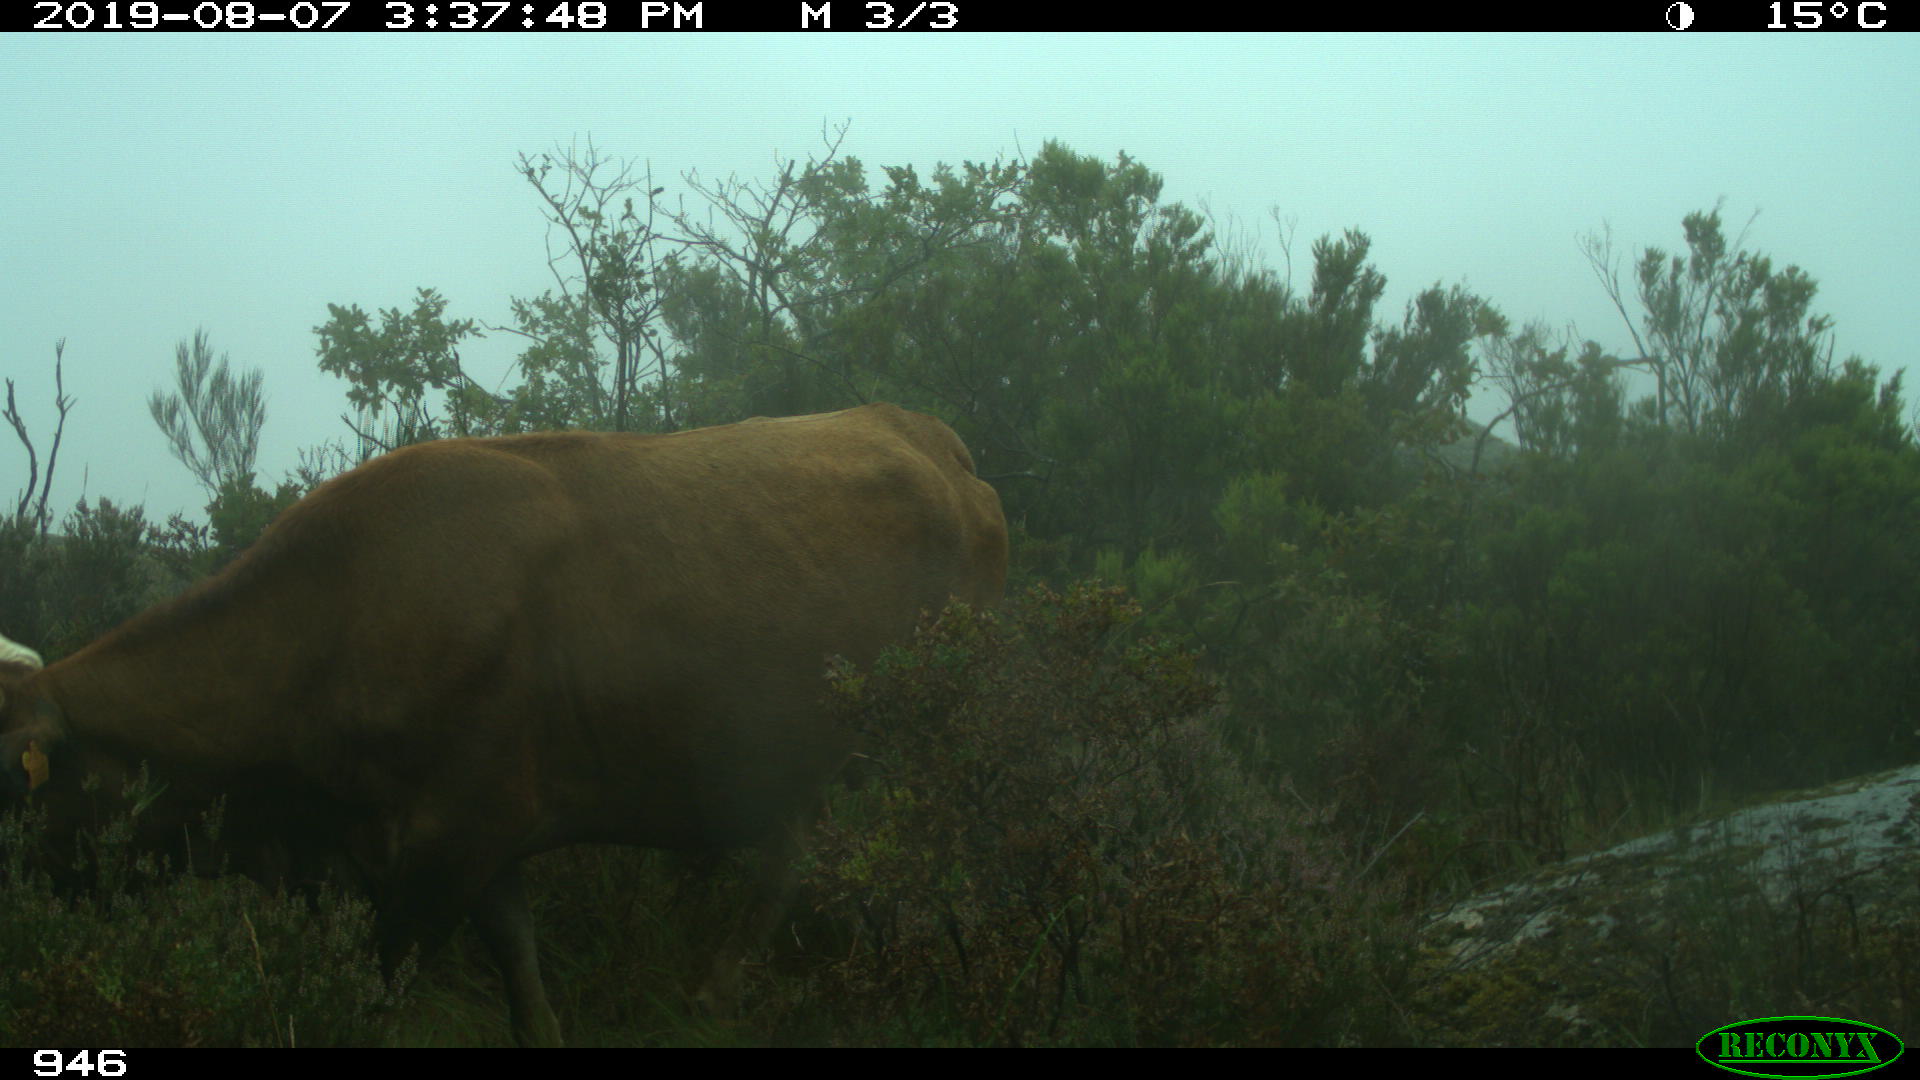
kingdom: Animalia
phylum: Chordata
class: Mammalia
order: Artiodactyla
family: Bovidae
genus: Bos
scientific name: Bos taurus
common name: Domesticated cattle
